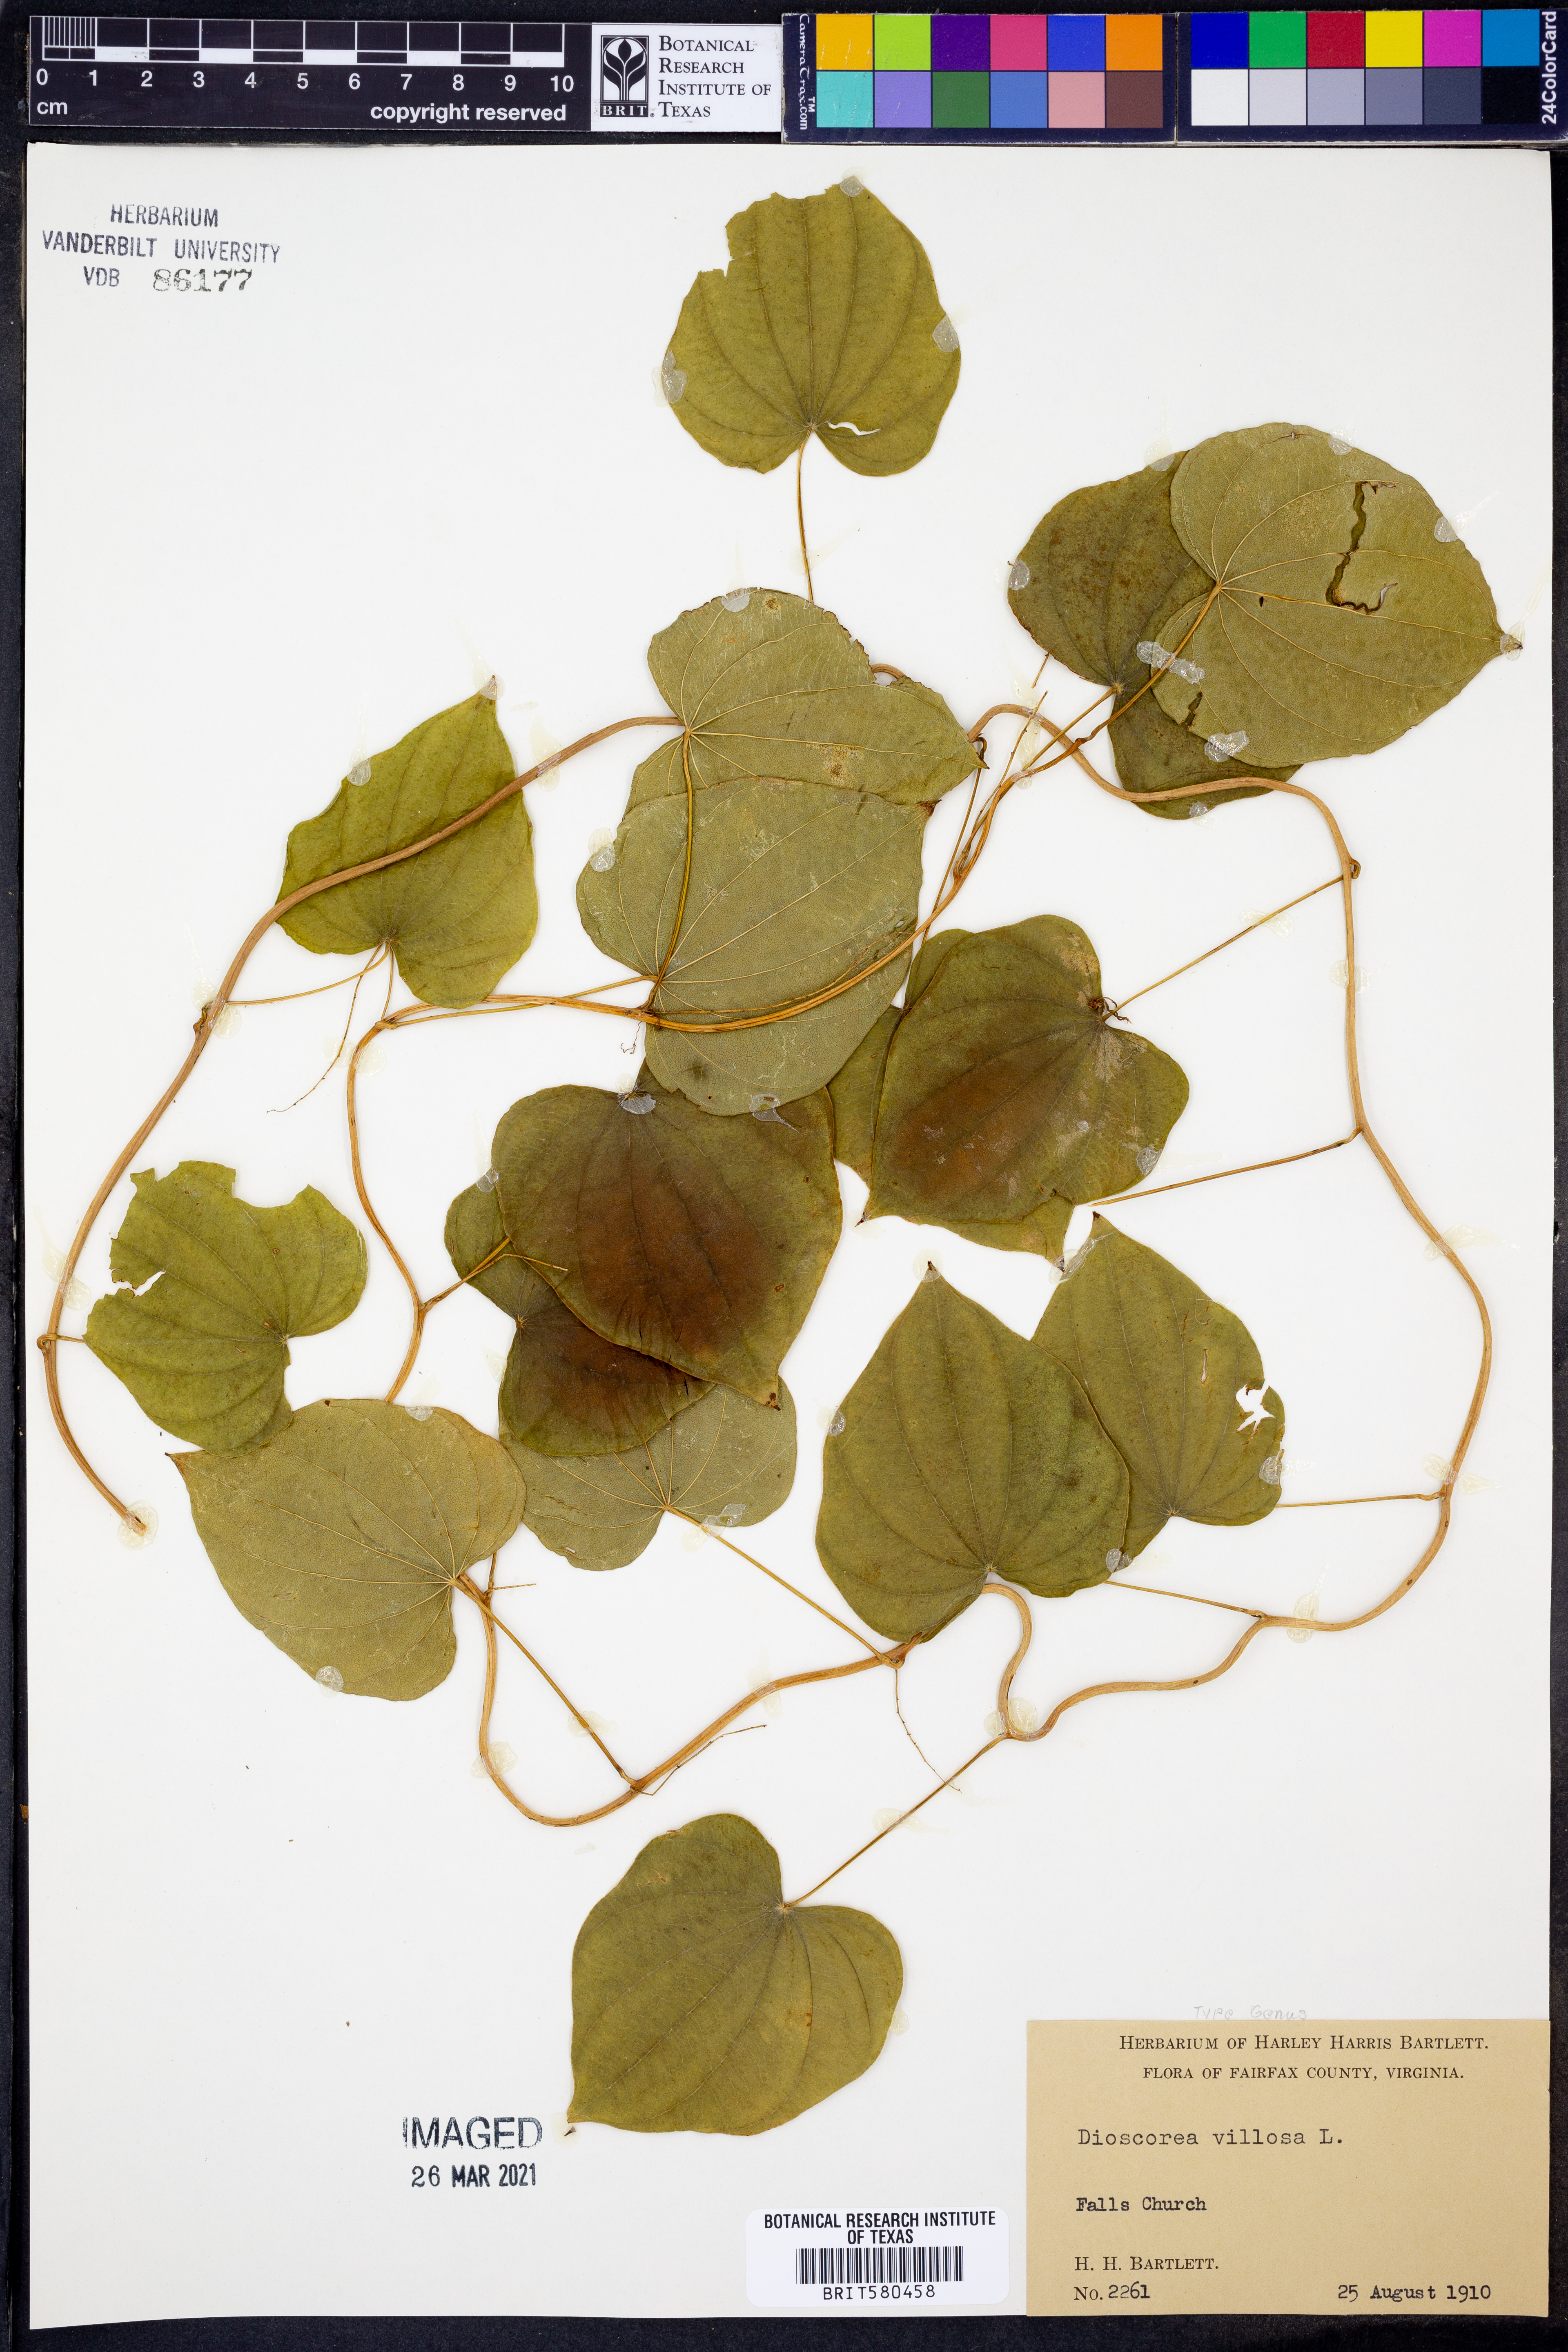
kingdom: Plantae
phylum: Tracheophyta
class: Liliopsida
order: Dioscoreales
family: Dioscoreaceae
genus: Dioscorea
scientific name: Dioscorea villosa
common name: Wild yam
